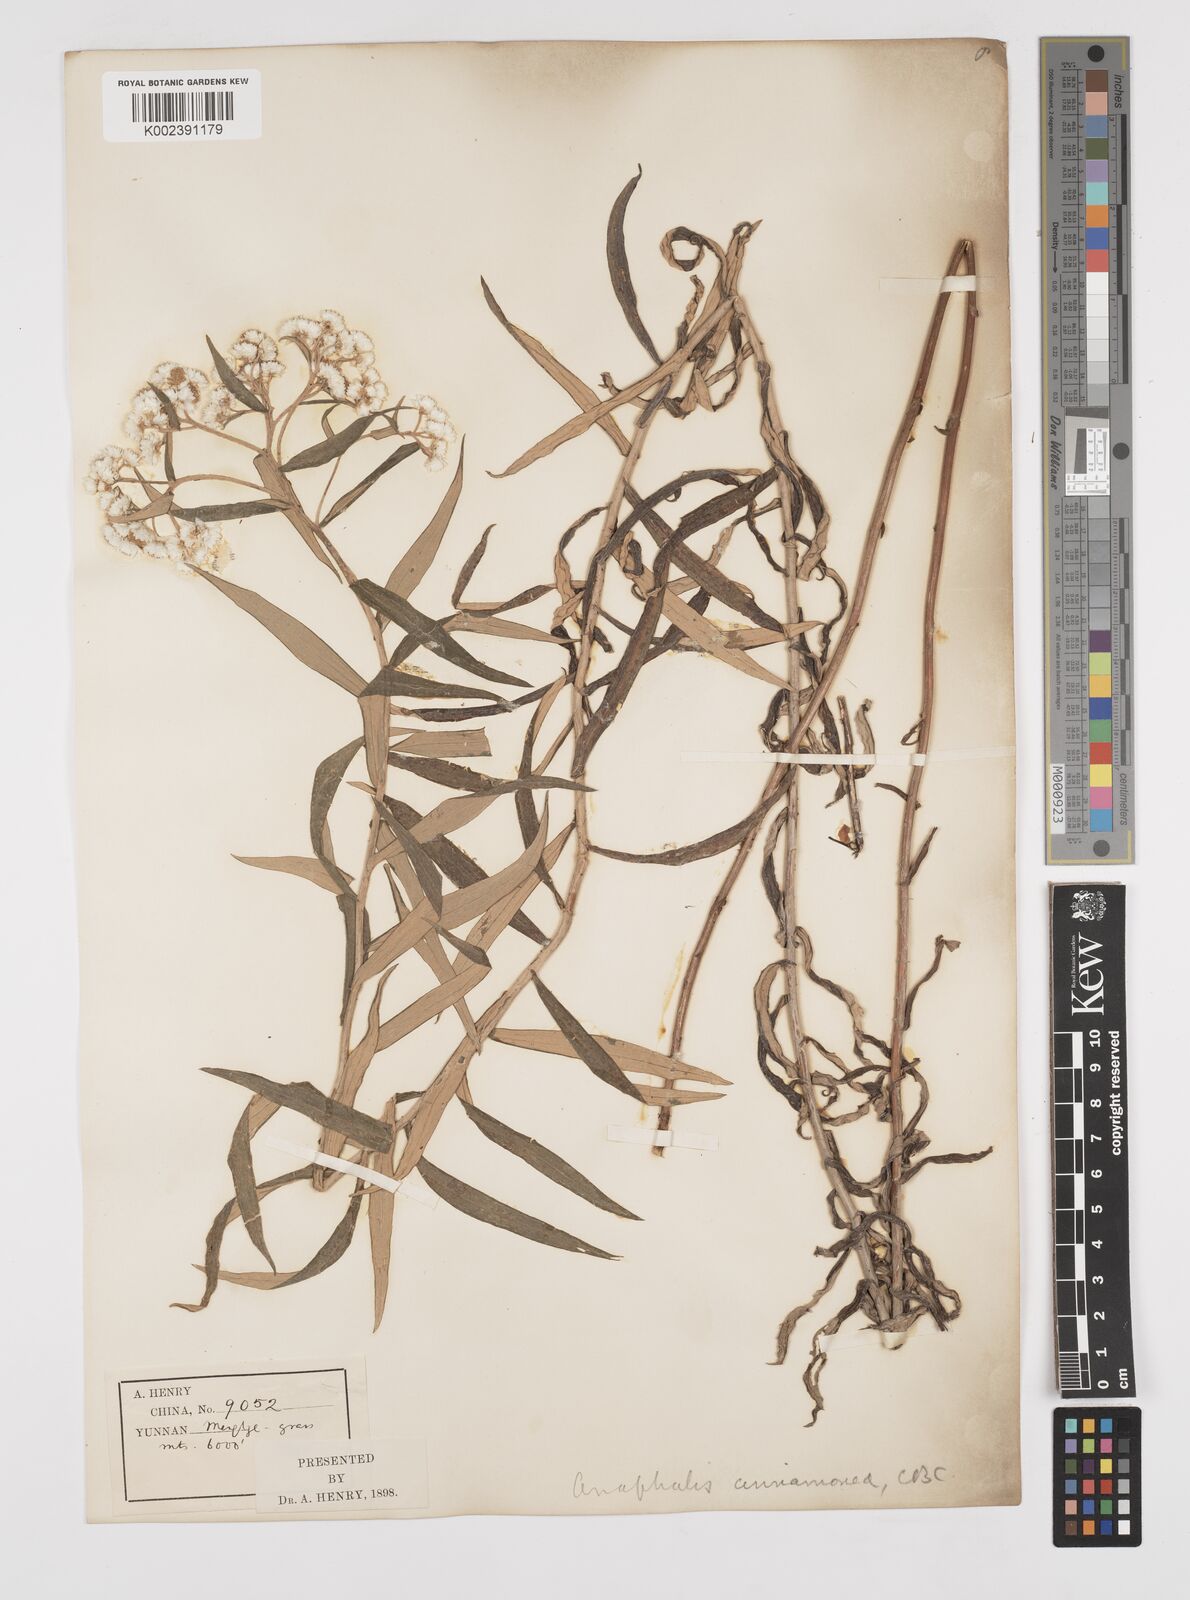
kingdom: Plantae
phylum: Tracheophyta
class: Magnoliopsida
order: Asterales
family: Asteraceae
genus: Anaphalis
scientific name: Anaphalis margaritacea
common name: Pearly everlasting
